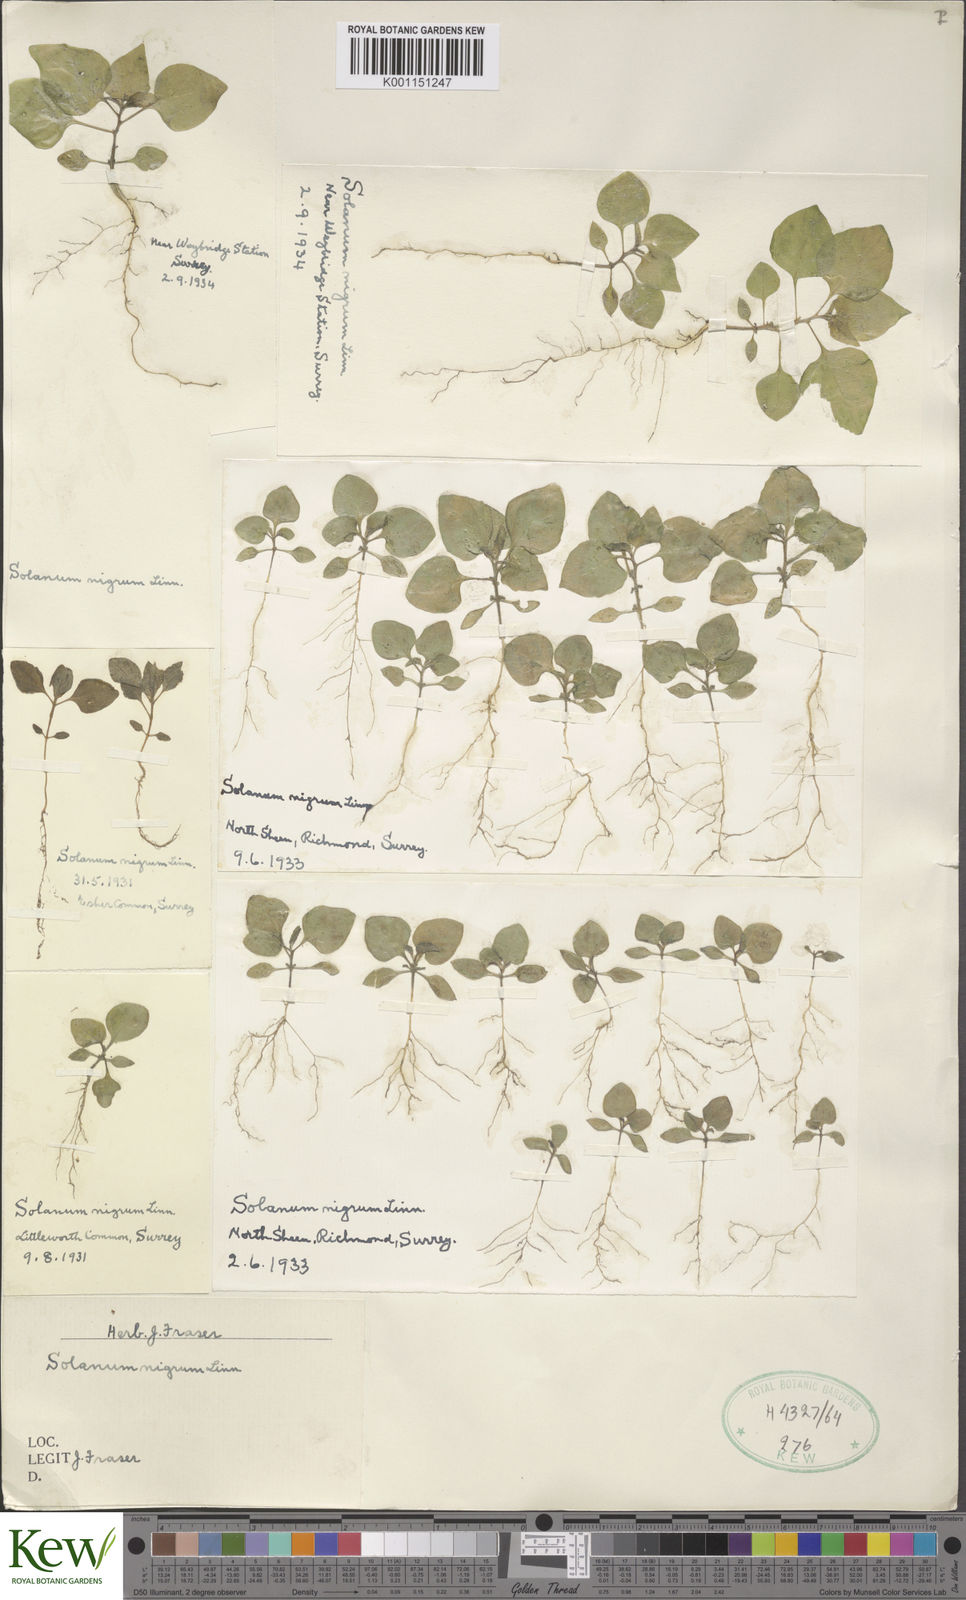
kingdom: Plantae
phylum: Tracheophyta
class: Magnoliopsida
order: Solanales
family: Solanaceae
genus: Solanum
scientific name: Solanum nigrum
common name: Black nightshade
